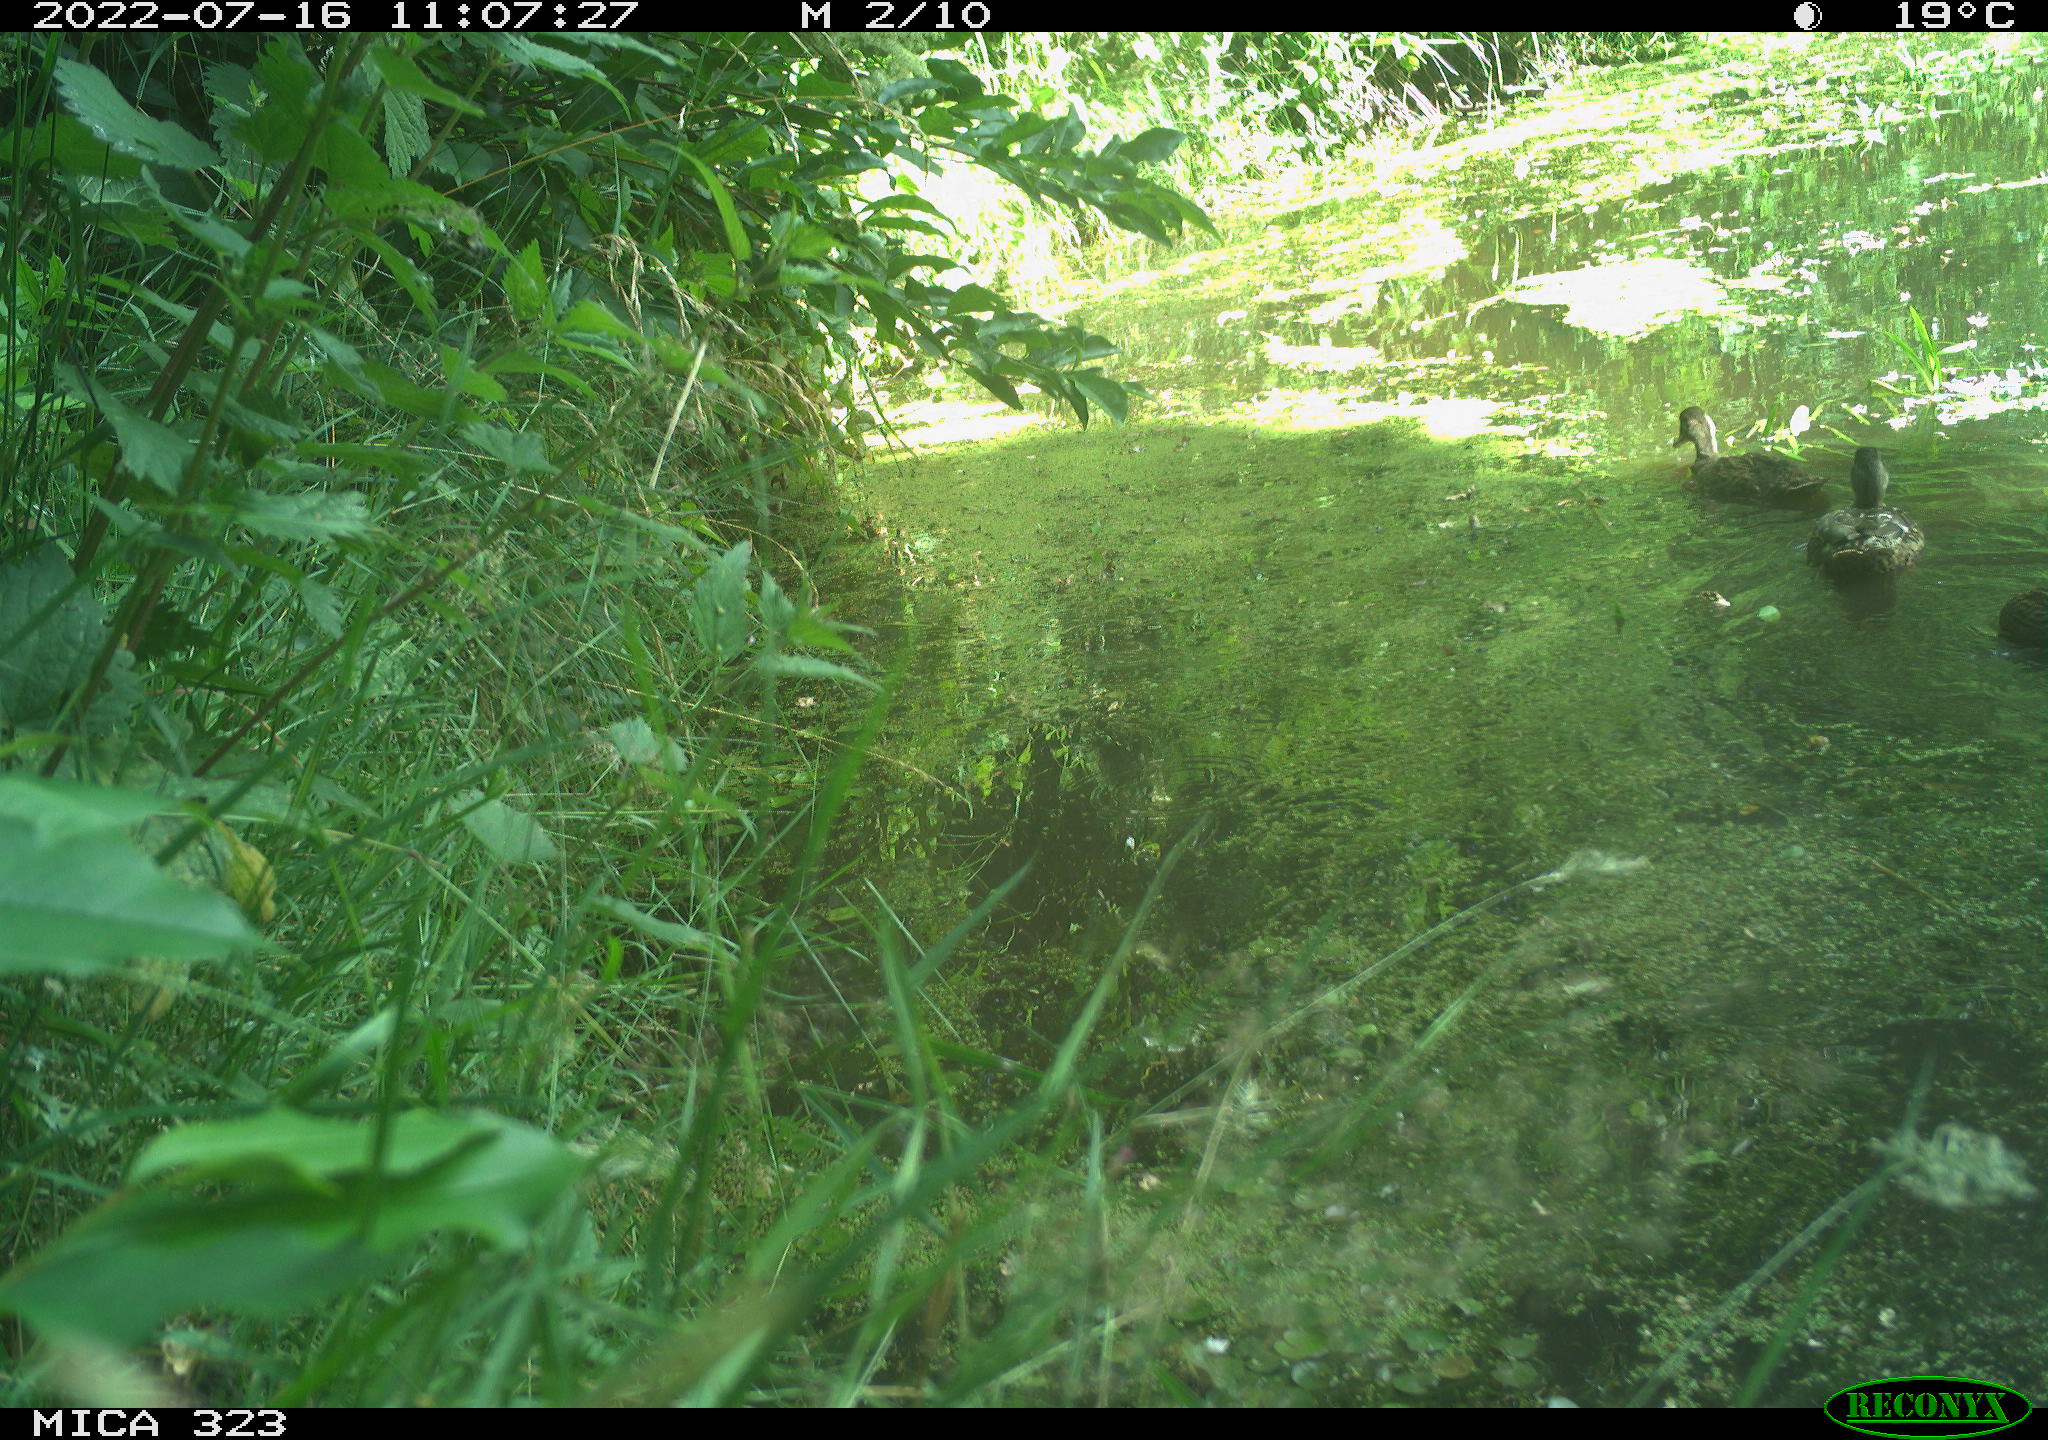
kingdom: Animalia
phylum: Chordata
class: Aves
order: Anseriformes
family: Anatidae
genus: Anas
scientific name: Anas platyrhynchos
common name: Mallard
